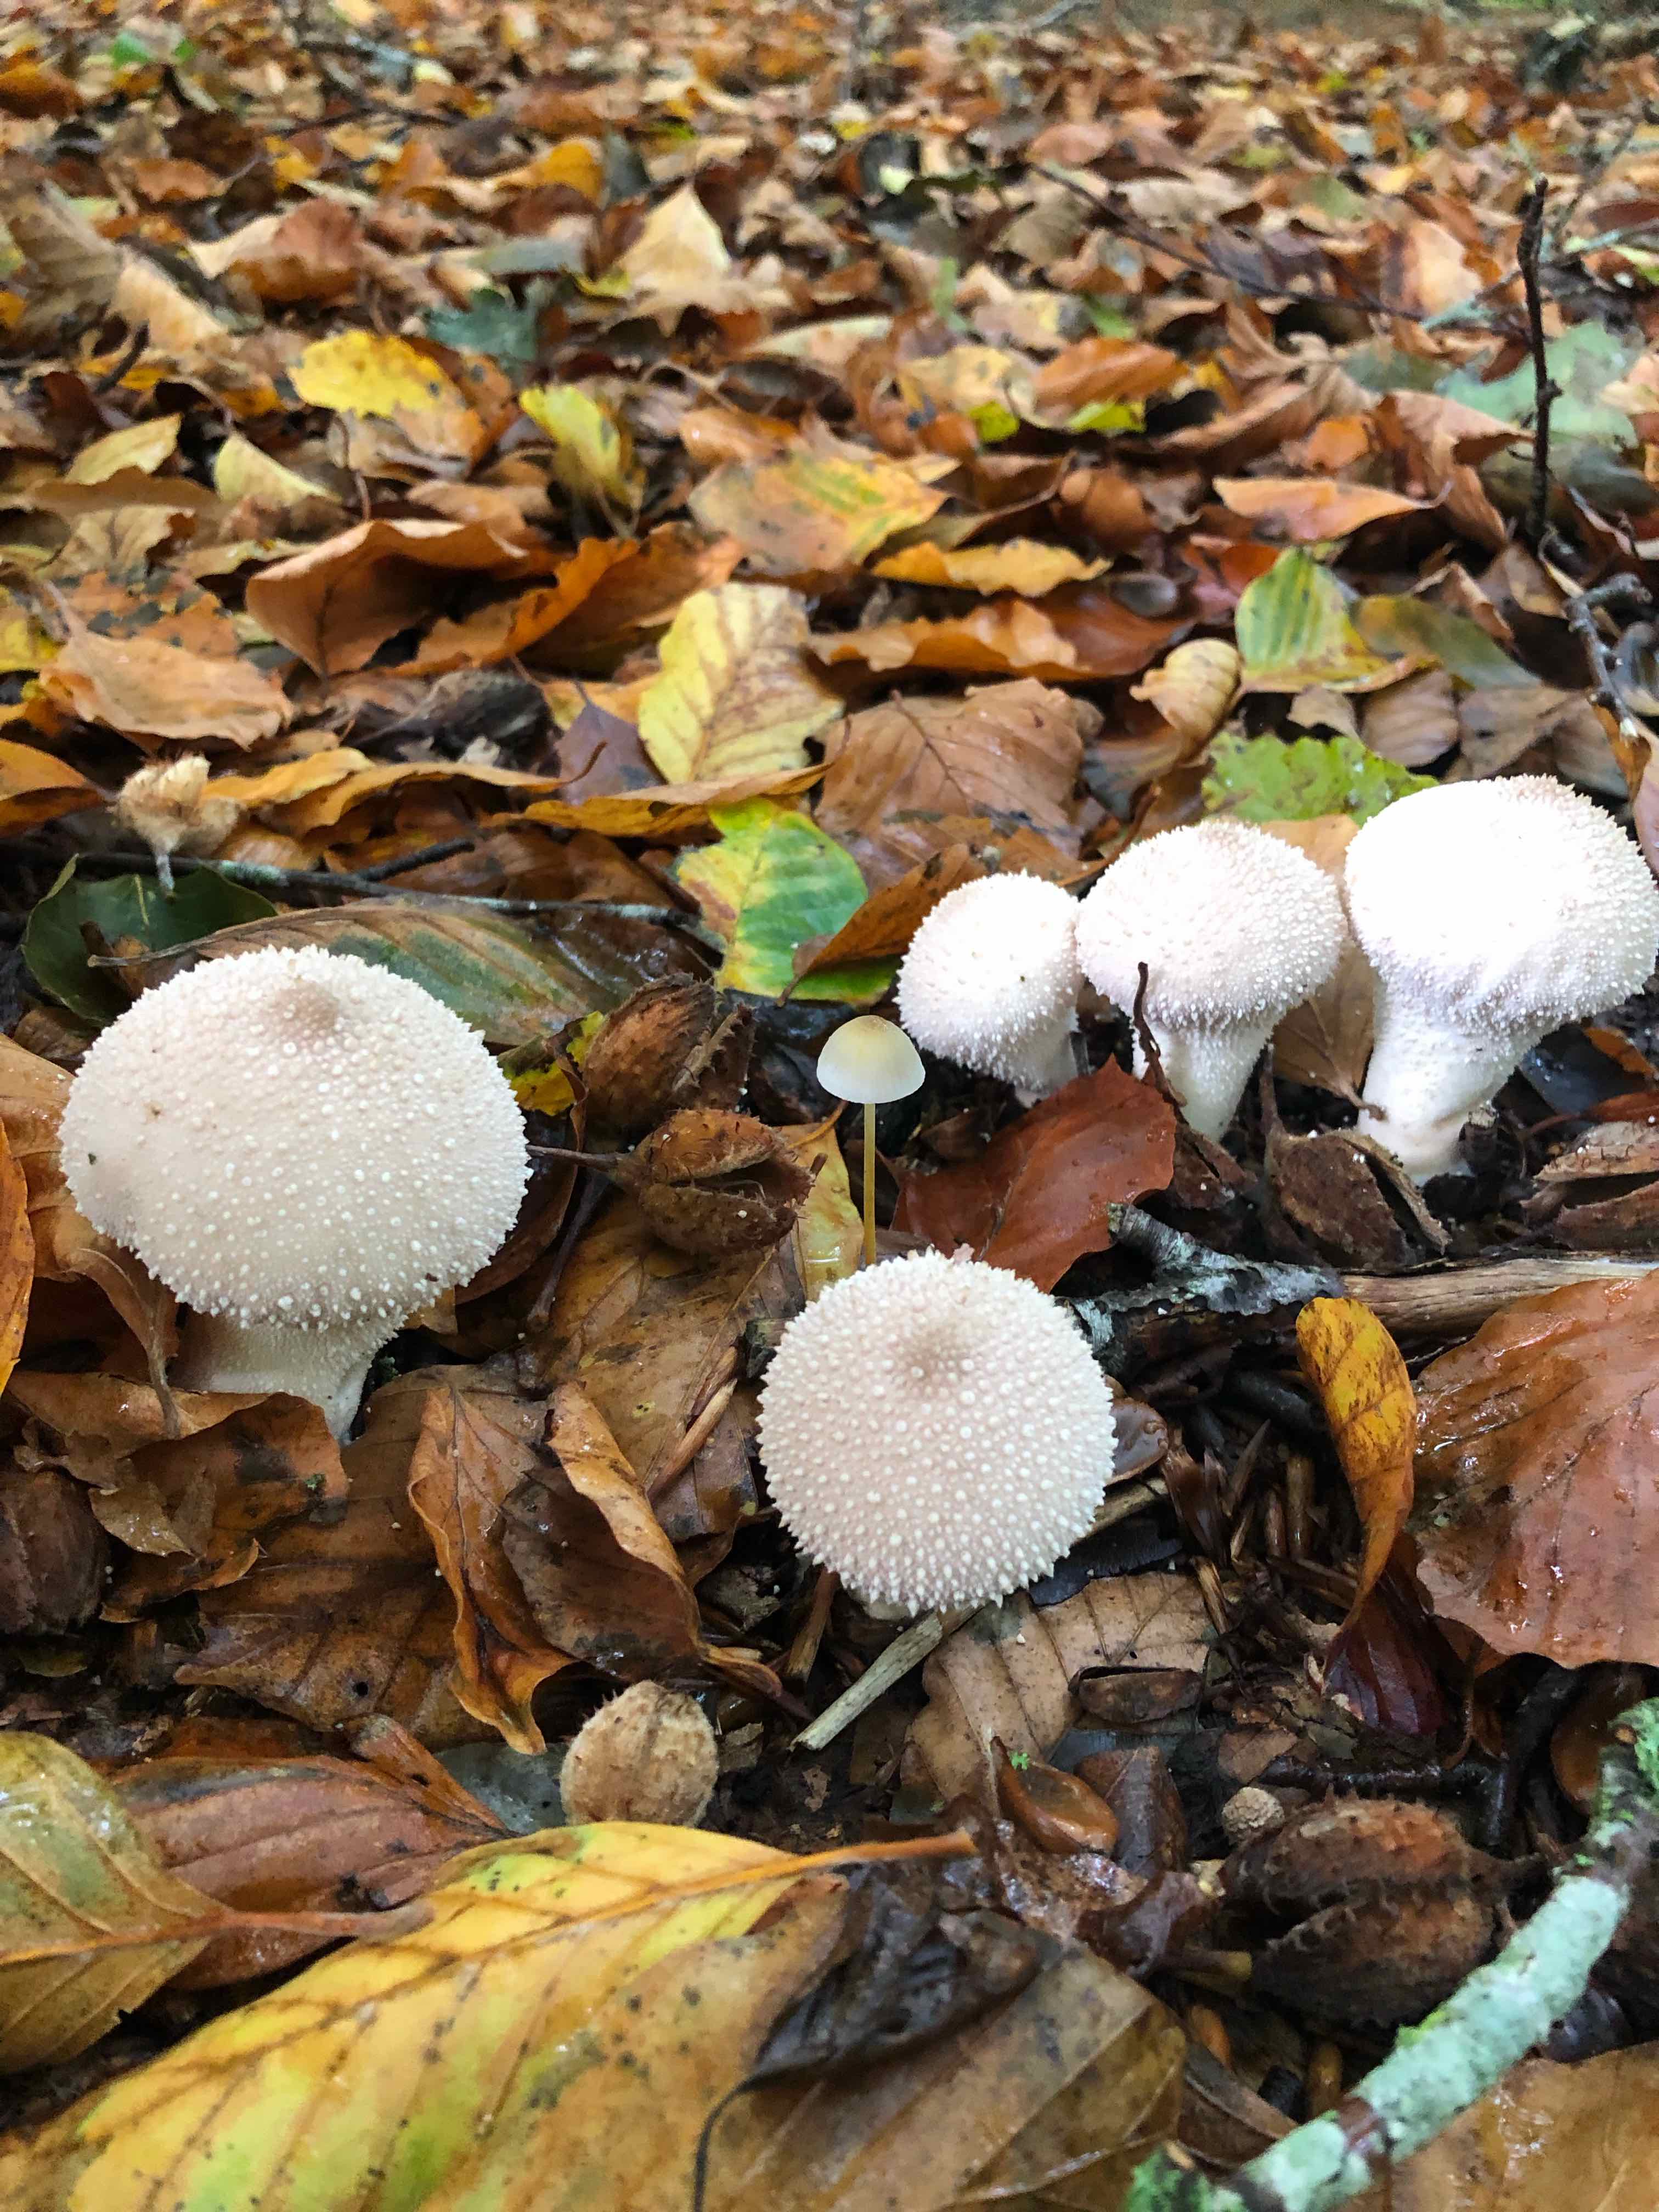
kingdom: Fungi
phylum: Basidiomycota
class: Agaricomycetes
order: Agaricales
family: Lycoperdaceae
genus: Lycoperdon
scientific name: Lycoperdon perlatum
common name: krystal-støvbold
